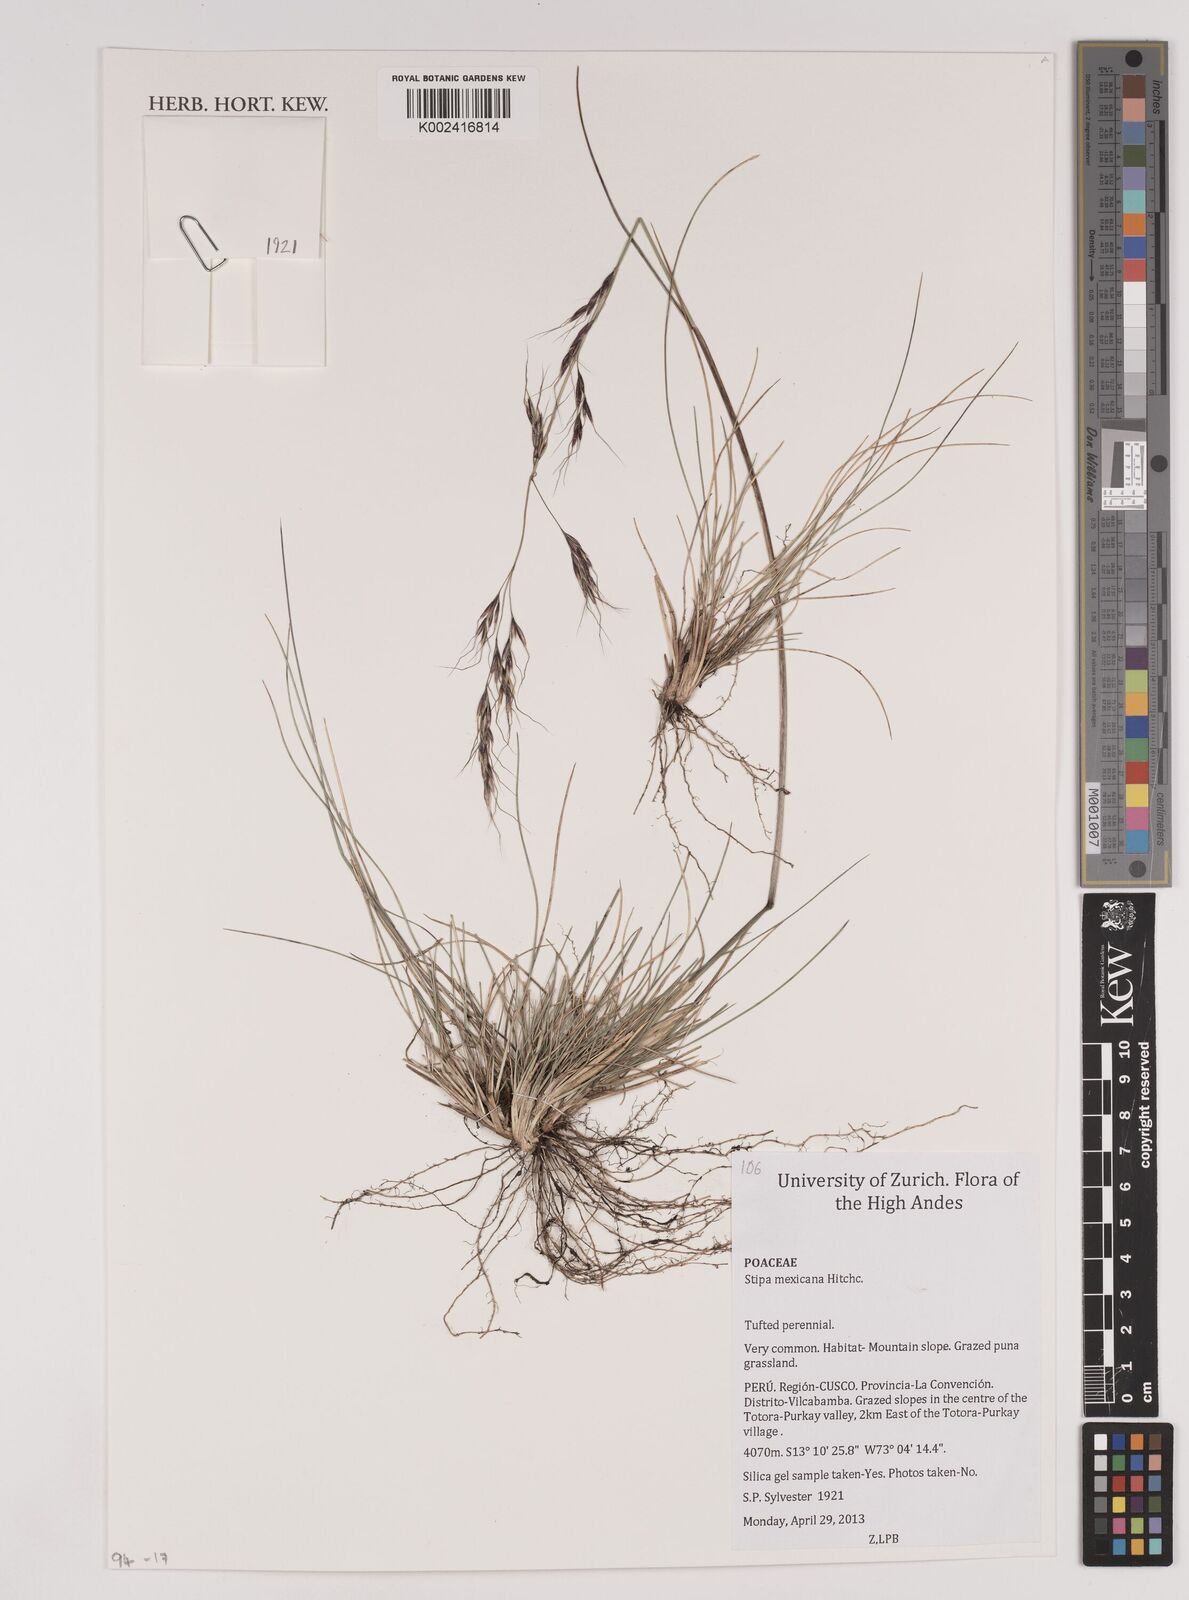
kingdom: Plantae
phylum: Tracheophyta
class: Liliopsida
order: Poales
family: Poaceae
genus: Nassella
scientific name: Nassella mexicana
